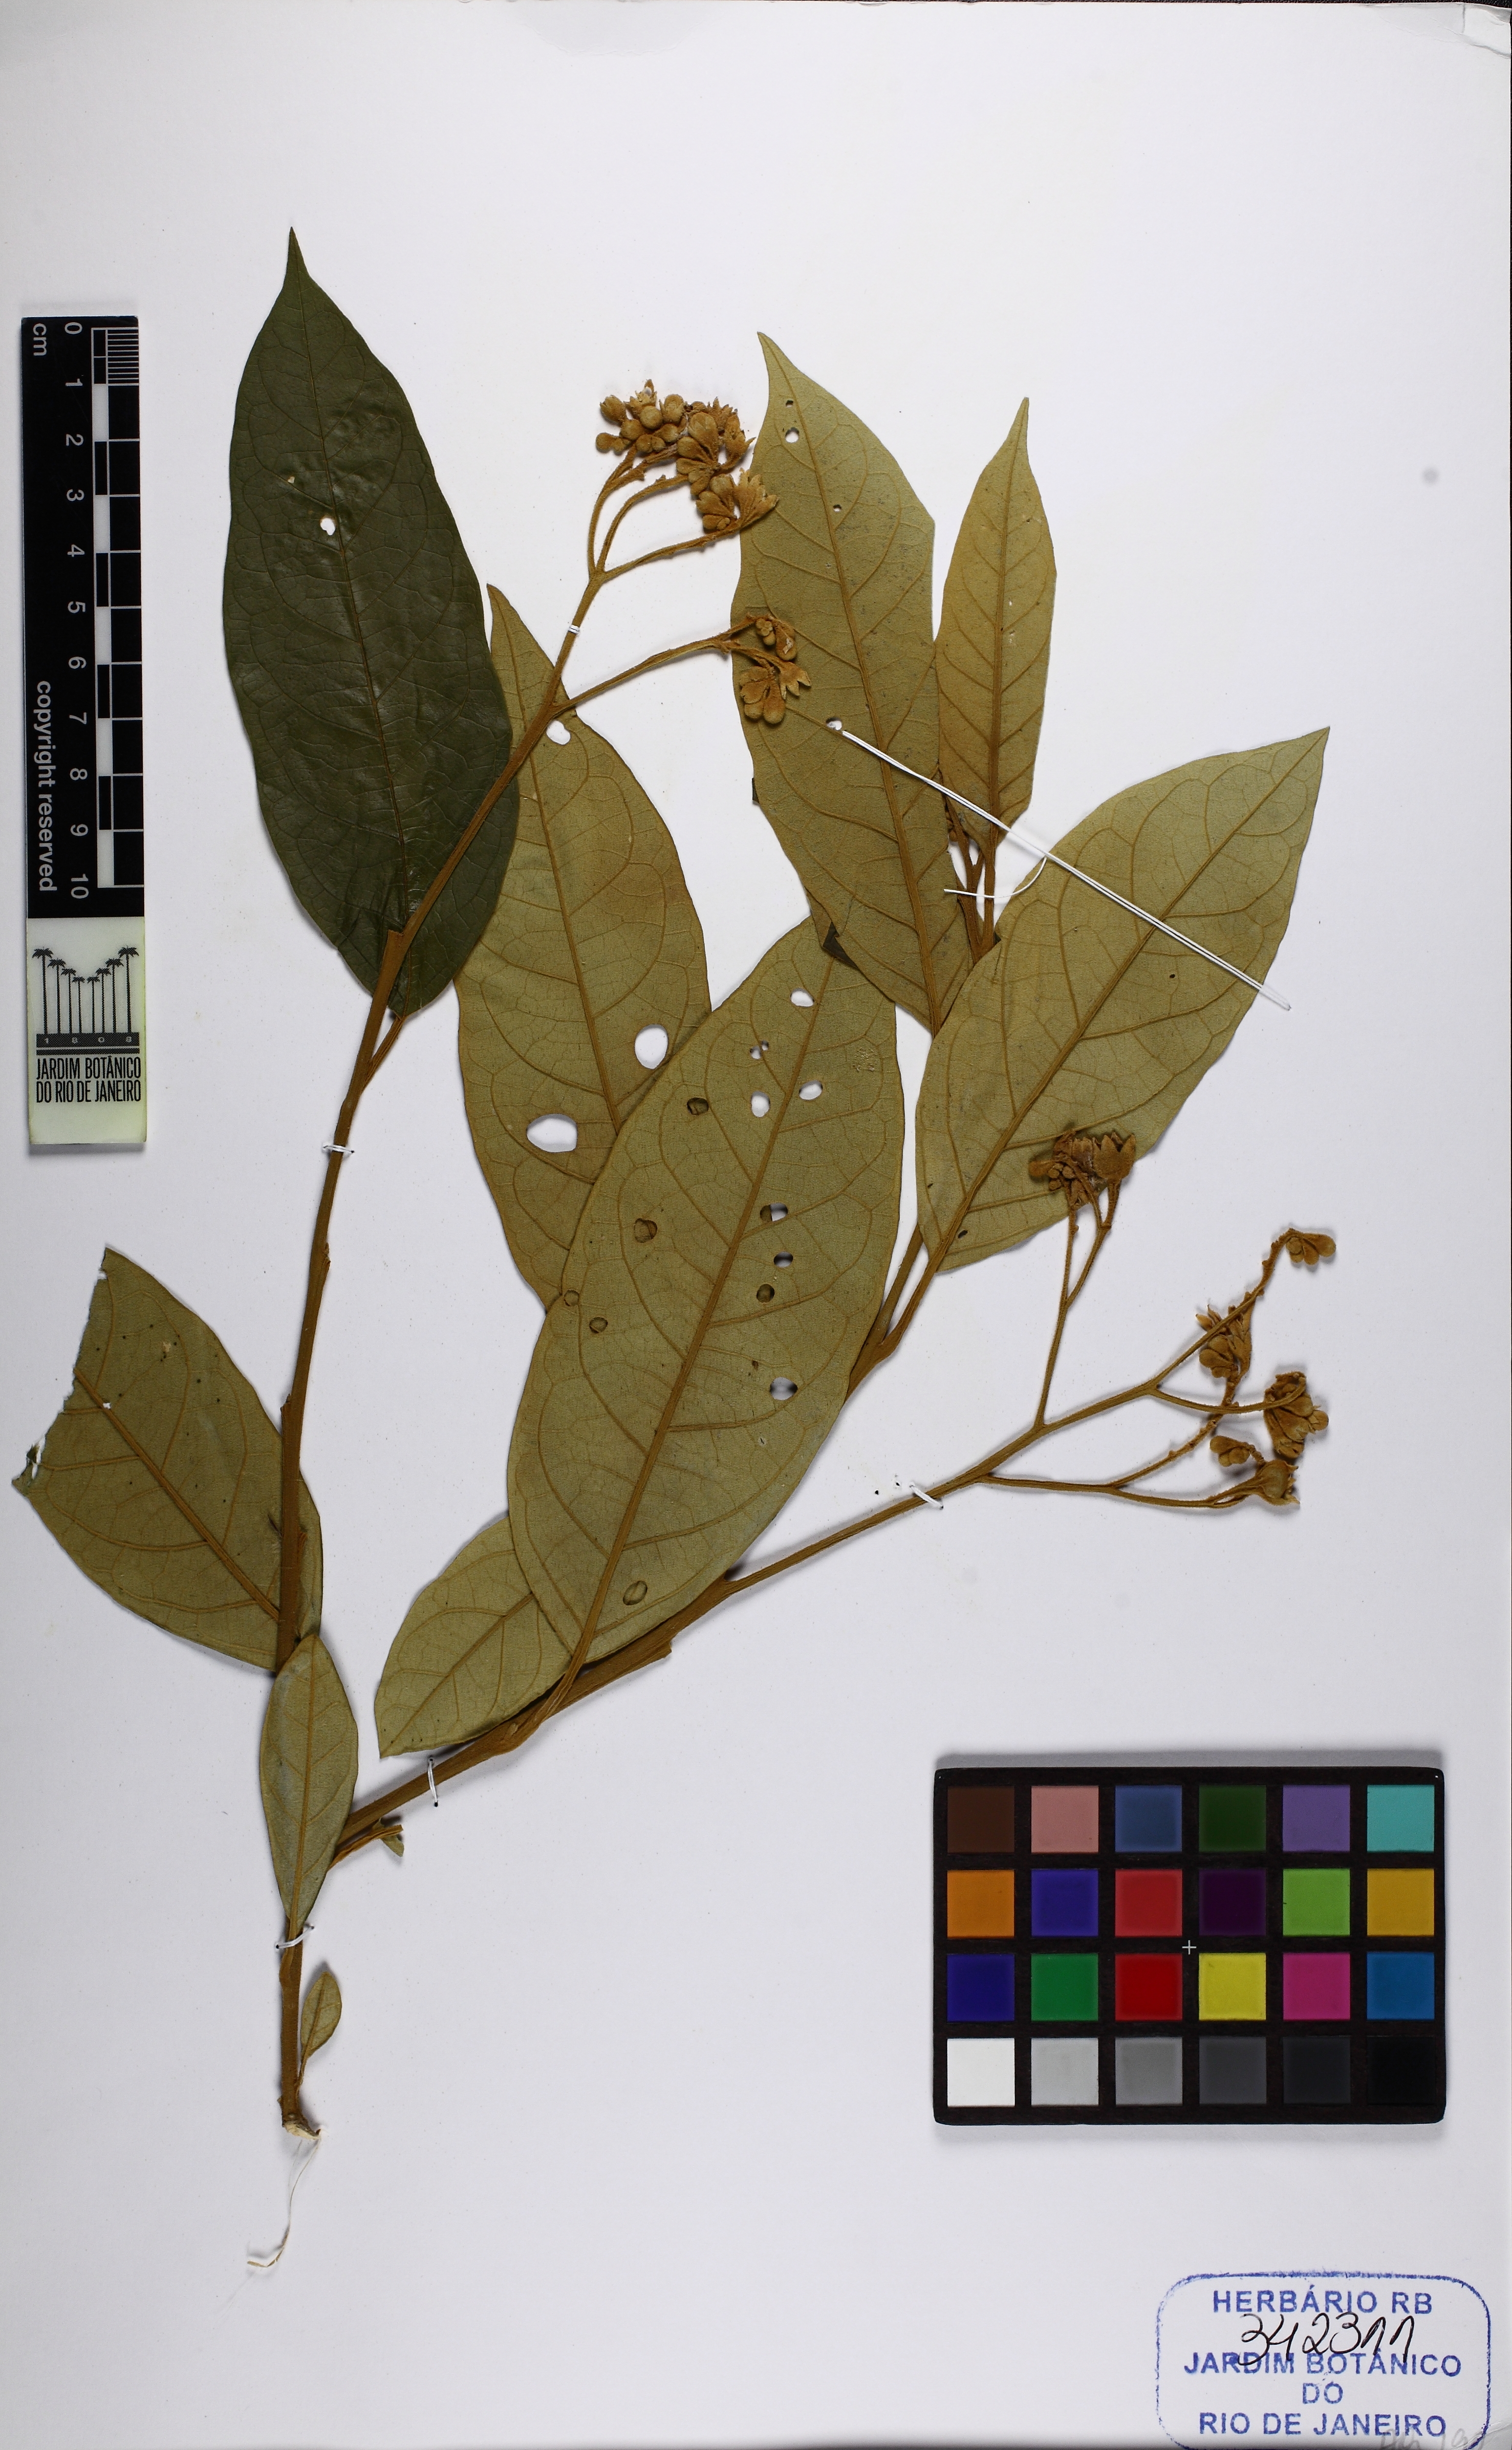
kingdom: Plantae
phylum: Tracheophyta
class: Magnoliopsida
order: Solanales
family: Solanaceae
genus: Solanum
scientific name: Solanum
